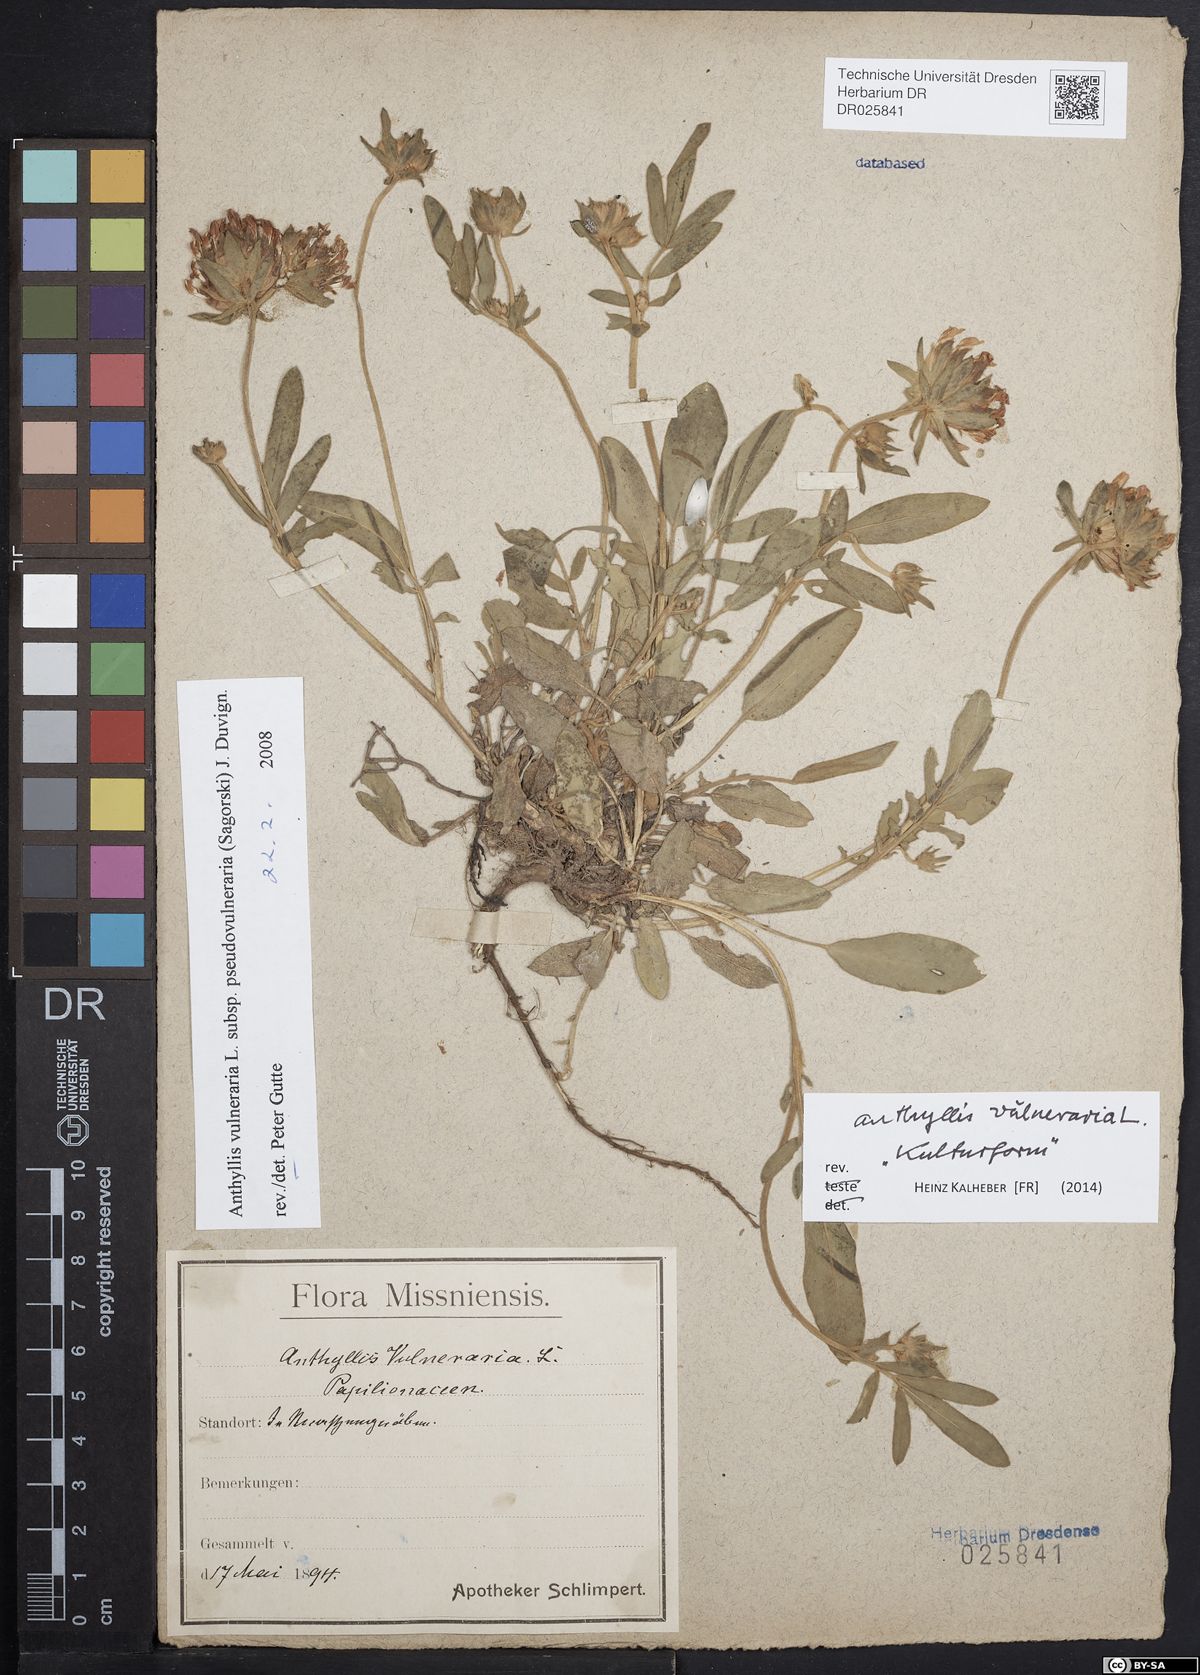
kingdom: Plantae
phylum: Tracheophyta
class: Magnoliopsida
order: Fabales
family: Fabaceae
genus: Anthyllis
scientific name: Anthyllis vulneraria
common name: Kidney vetch
